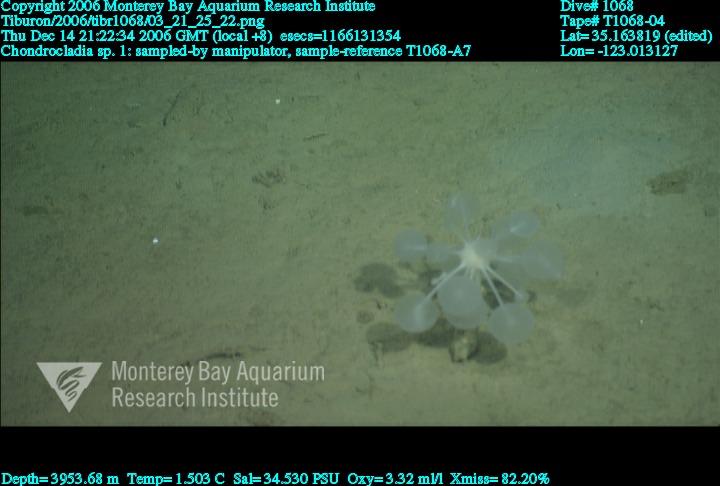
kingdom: Animalia
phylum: Porifera
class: Demospongiae
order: Poecilosclerida
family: Cladorhizidae
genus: Chondrocladia
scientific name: Chondrocladia
